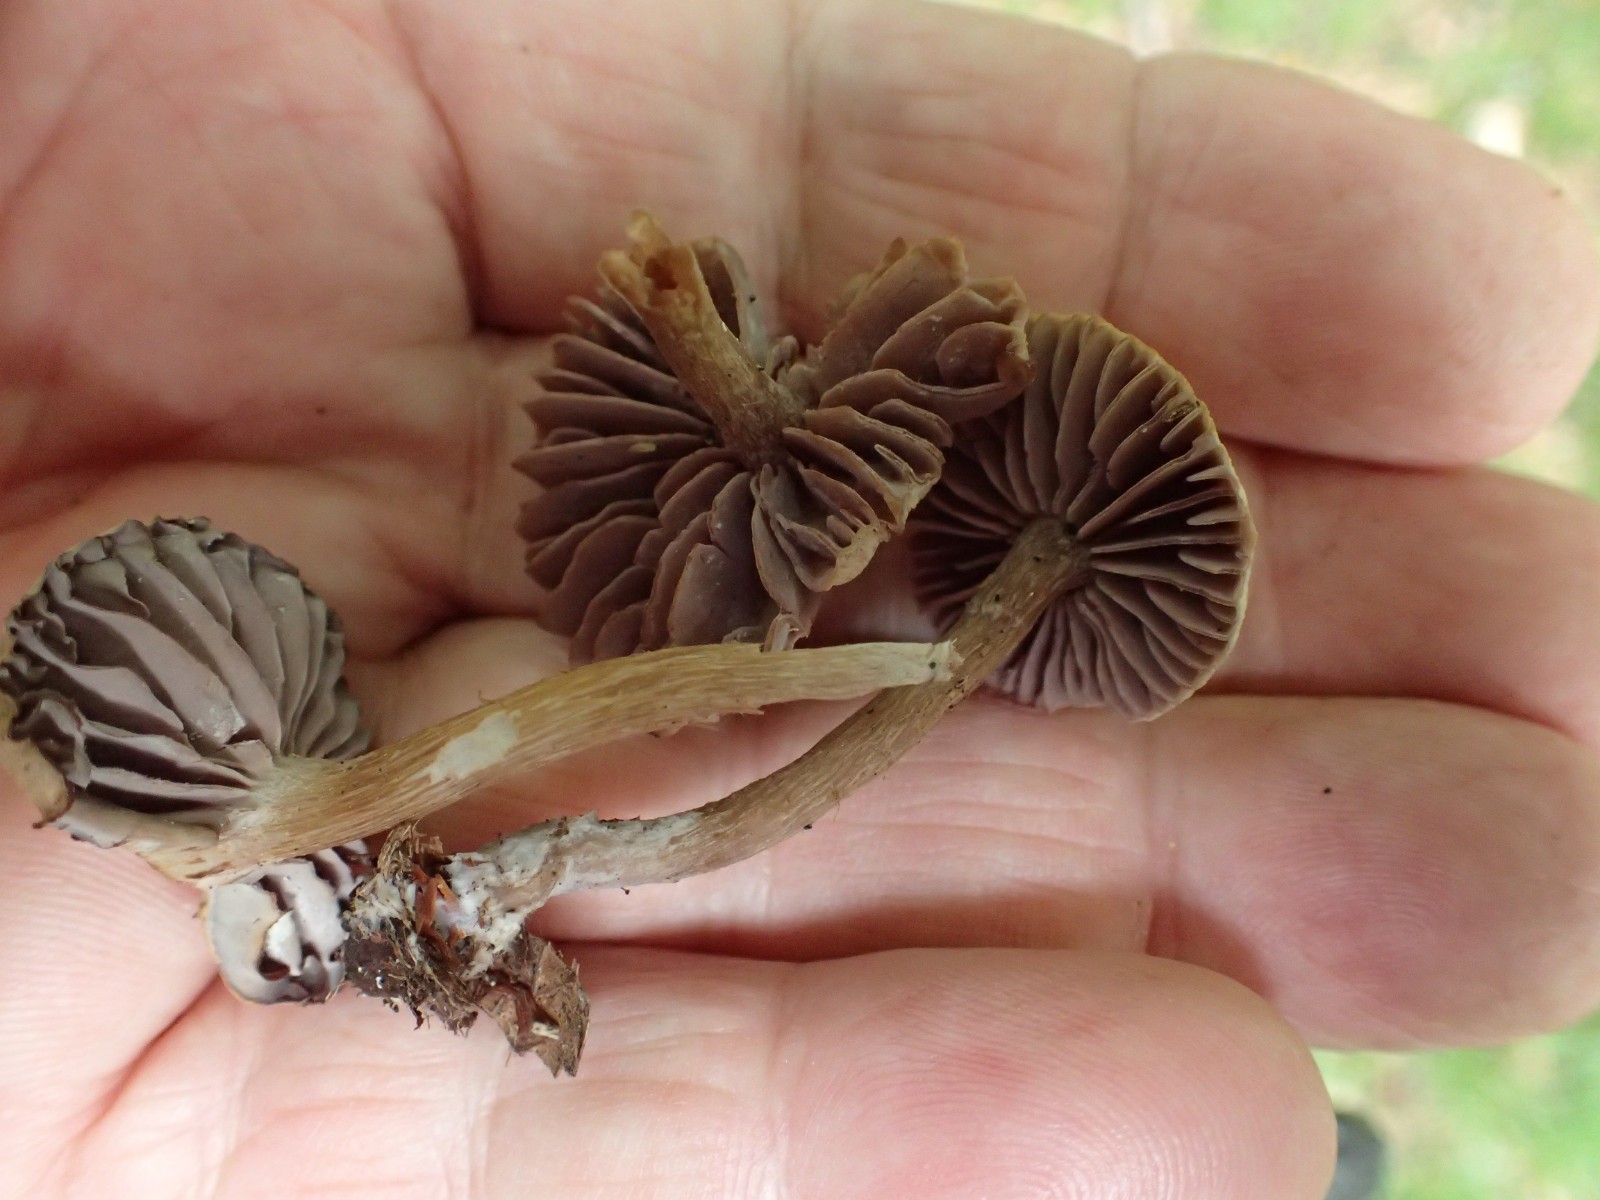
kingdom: Fungi
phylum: Basidiomycota
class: Agaricomycetes
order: Agaricales
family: Hydnangiaceae
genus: Laccaria
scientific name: Laccaria
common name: ametysthat
